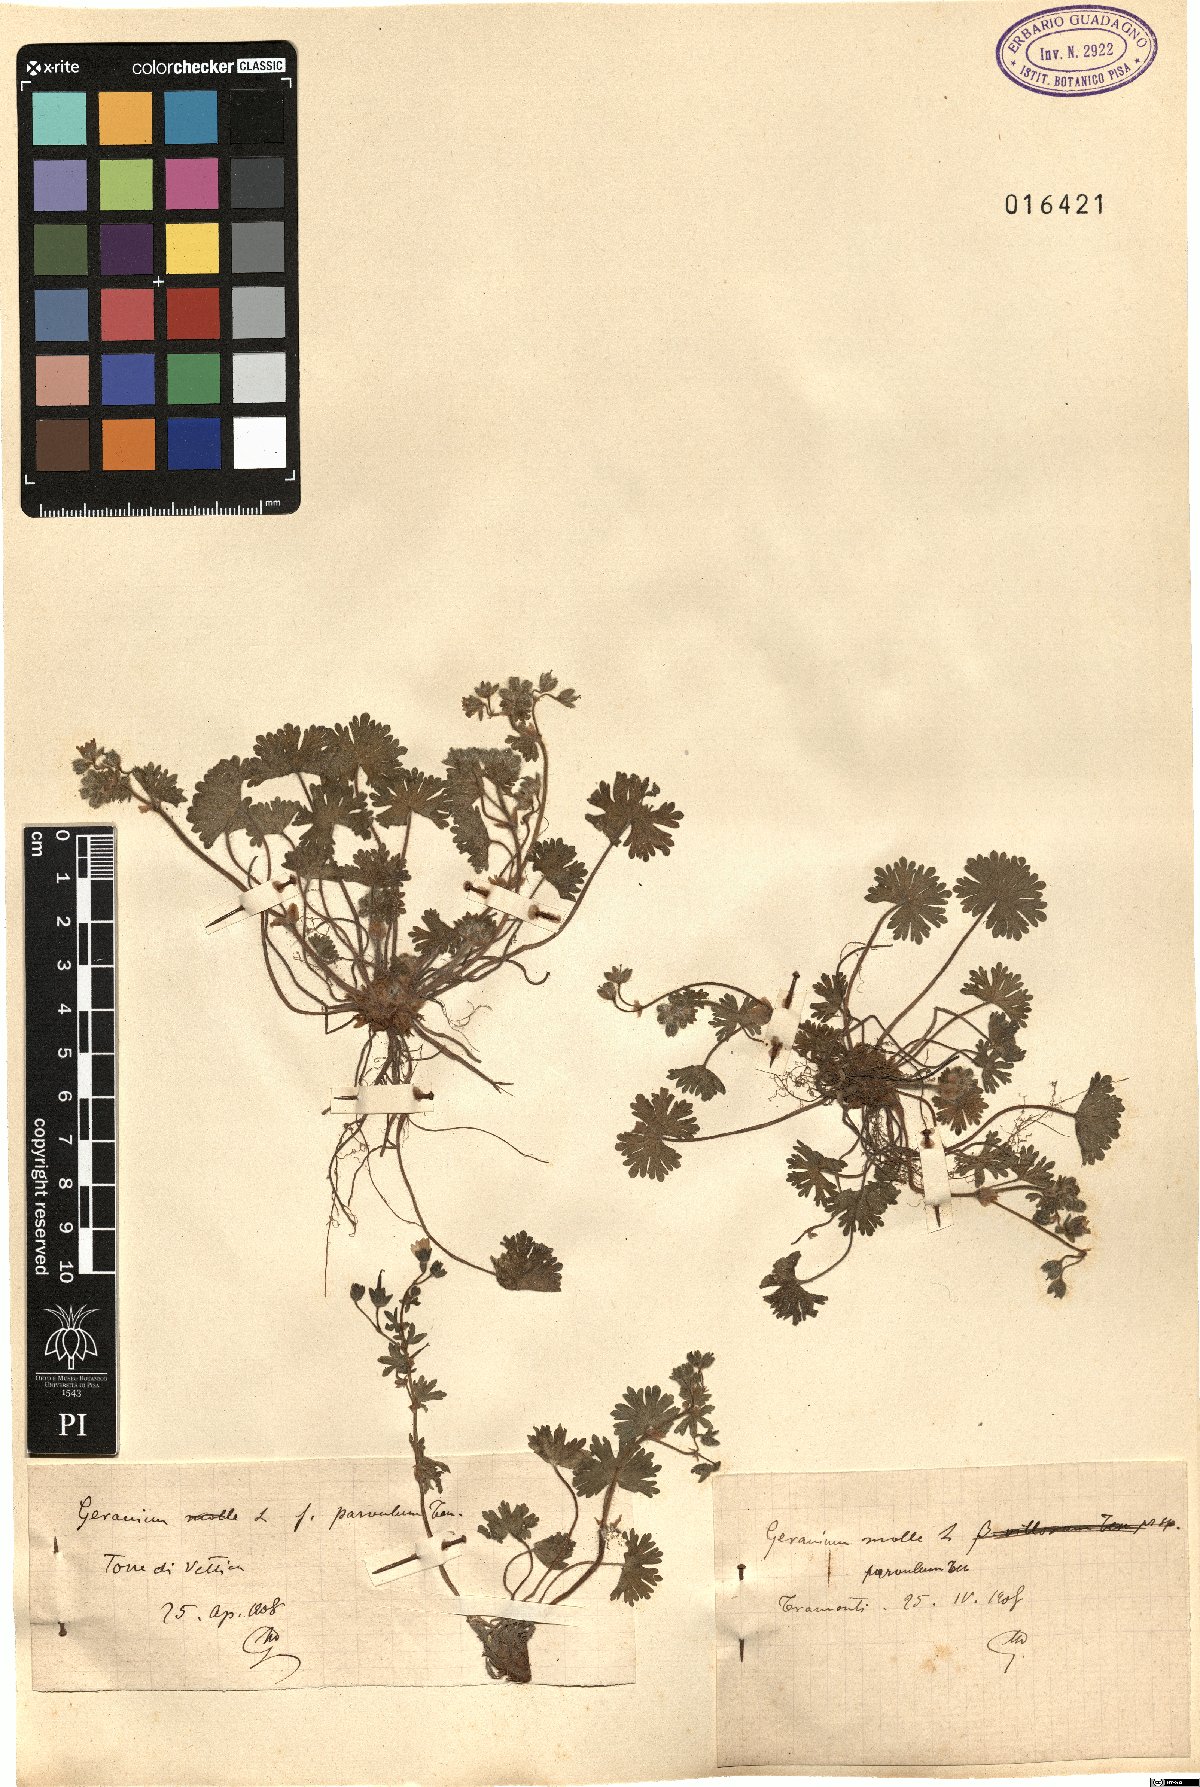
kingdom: Plantae
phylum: Tracheophyta
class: Magnoliopsida
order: Geraniales
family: Geraniaceae
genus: Geranium
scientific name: Geranium molle
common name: Dove's-foot crane's-bill
